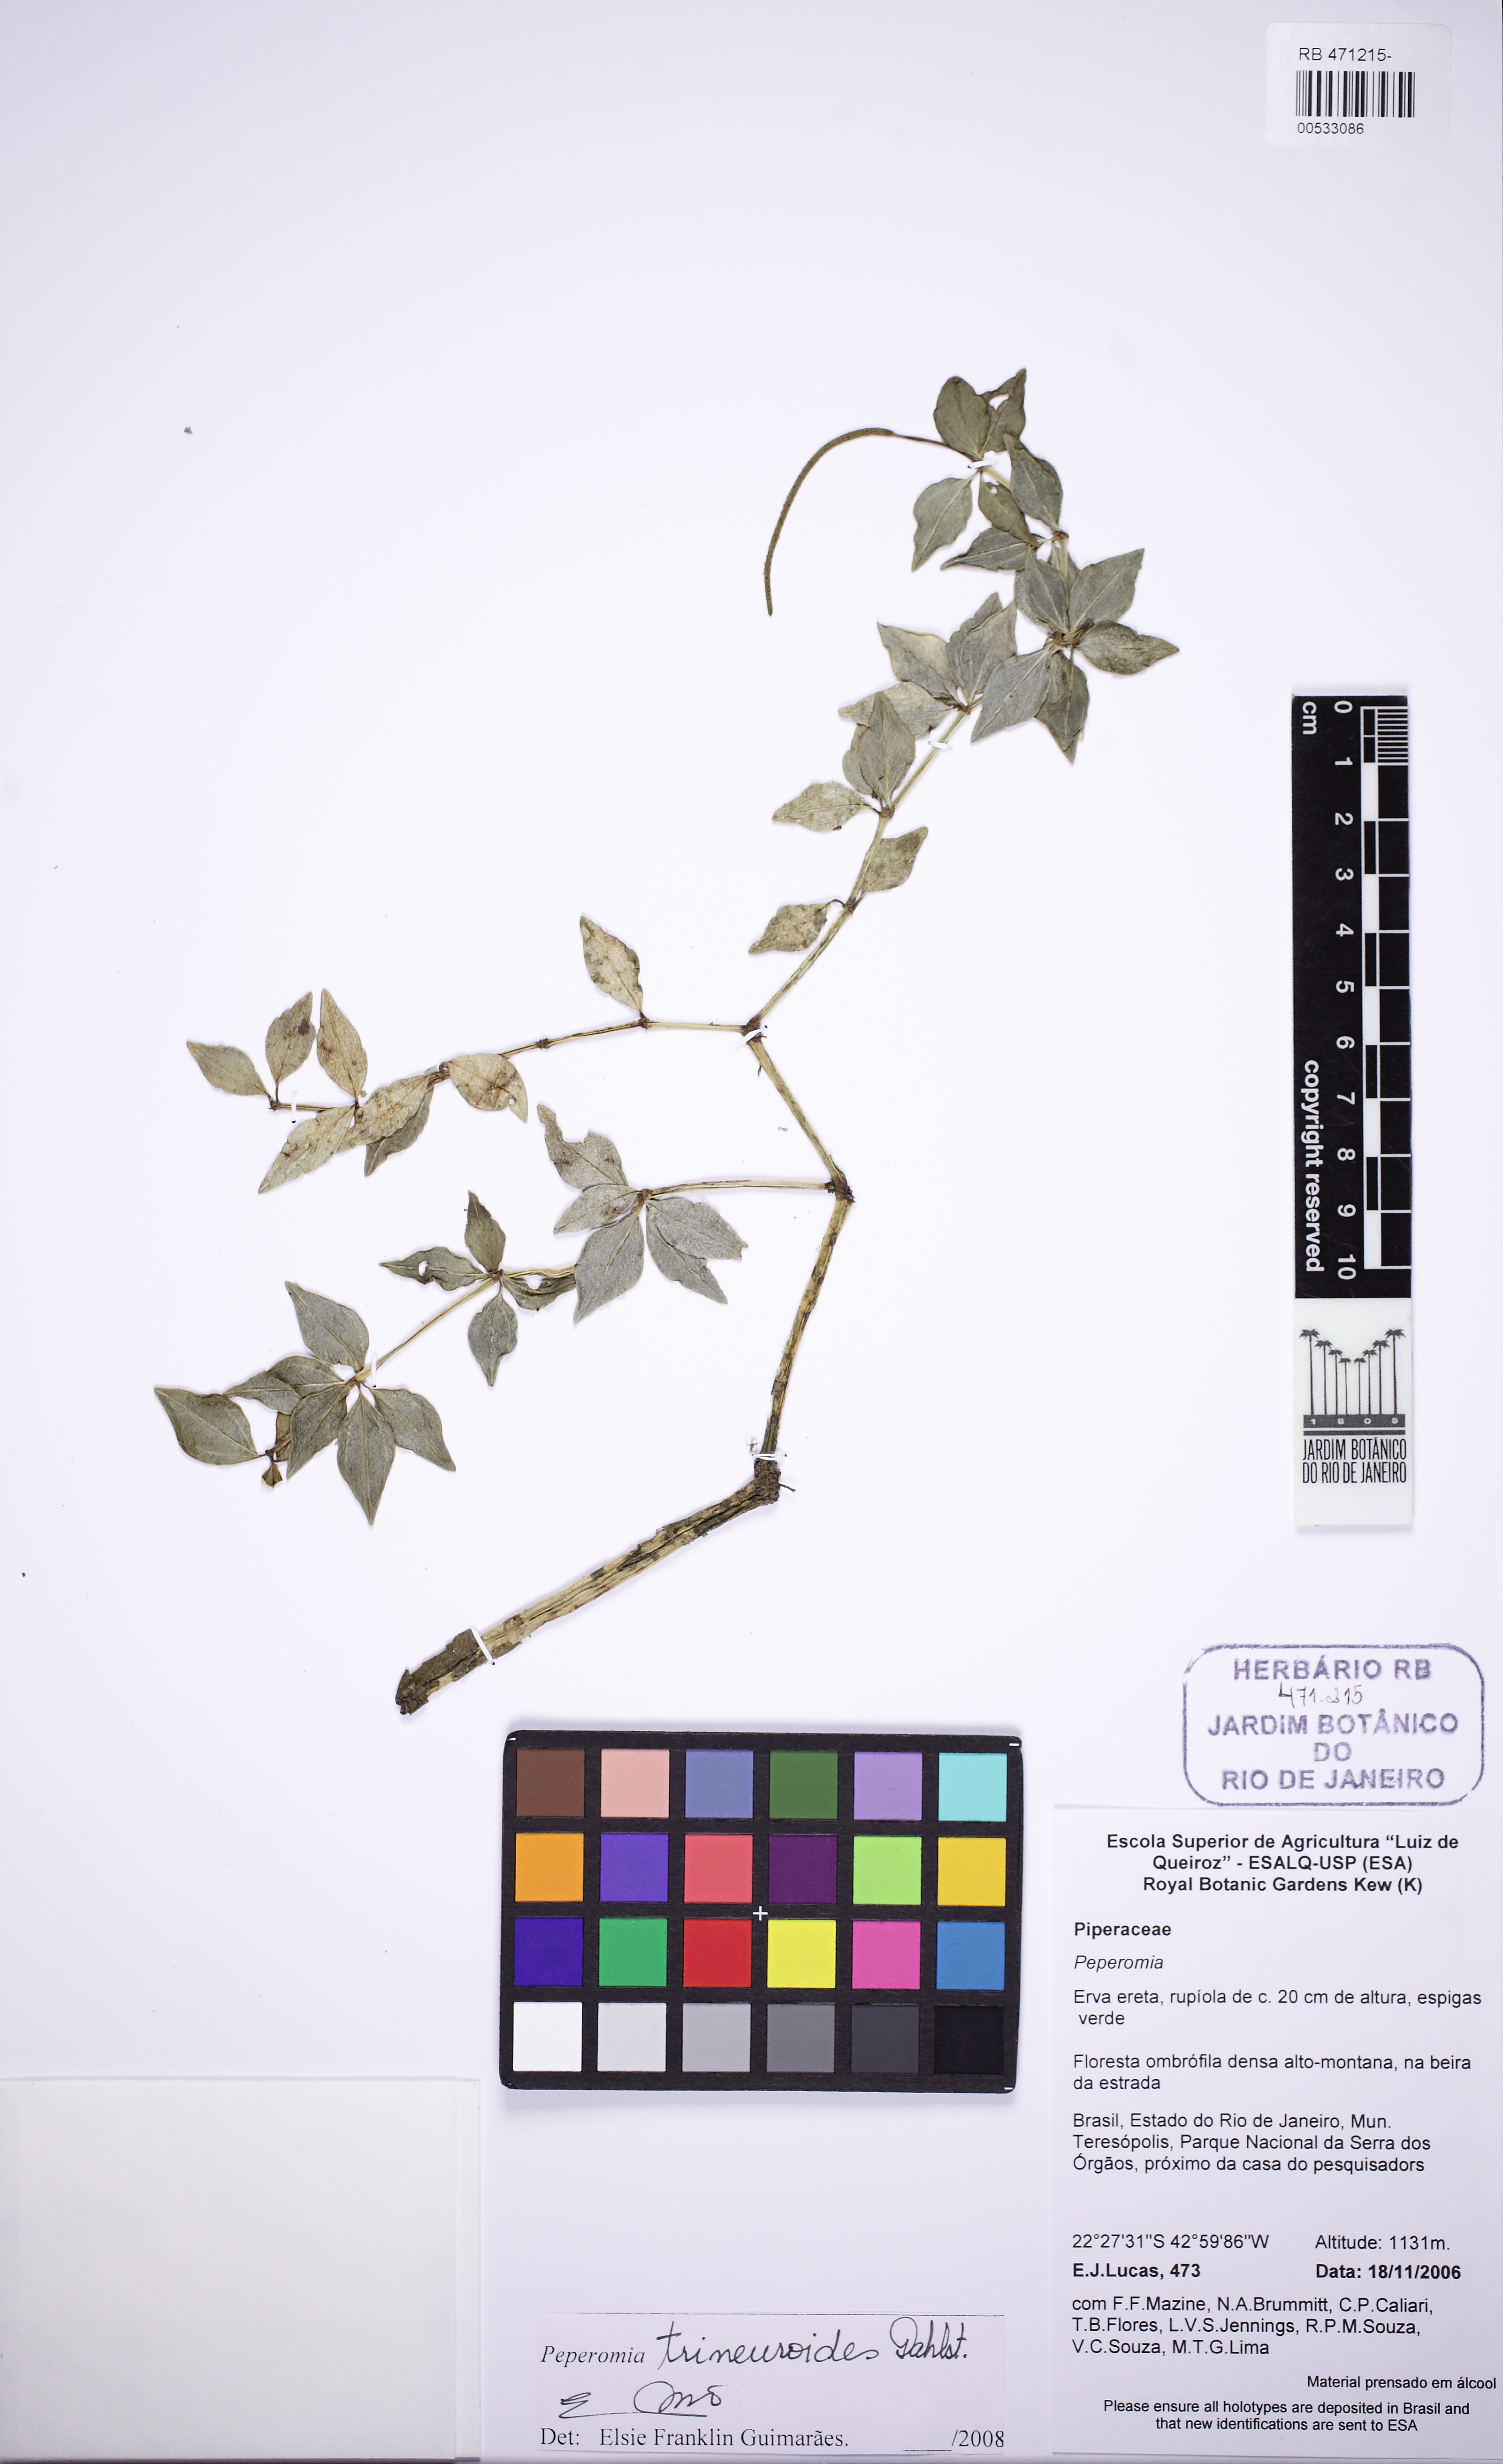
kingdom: Plantae
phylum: Tracheophyta
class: Magnoliopsida
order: Piperales
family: Piperaceae
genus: Peperomia
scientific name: Peperomia trineuroides
